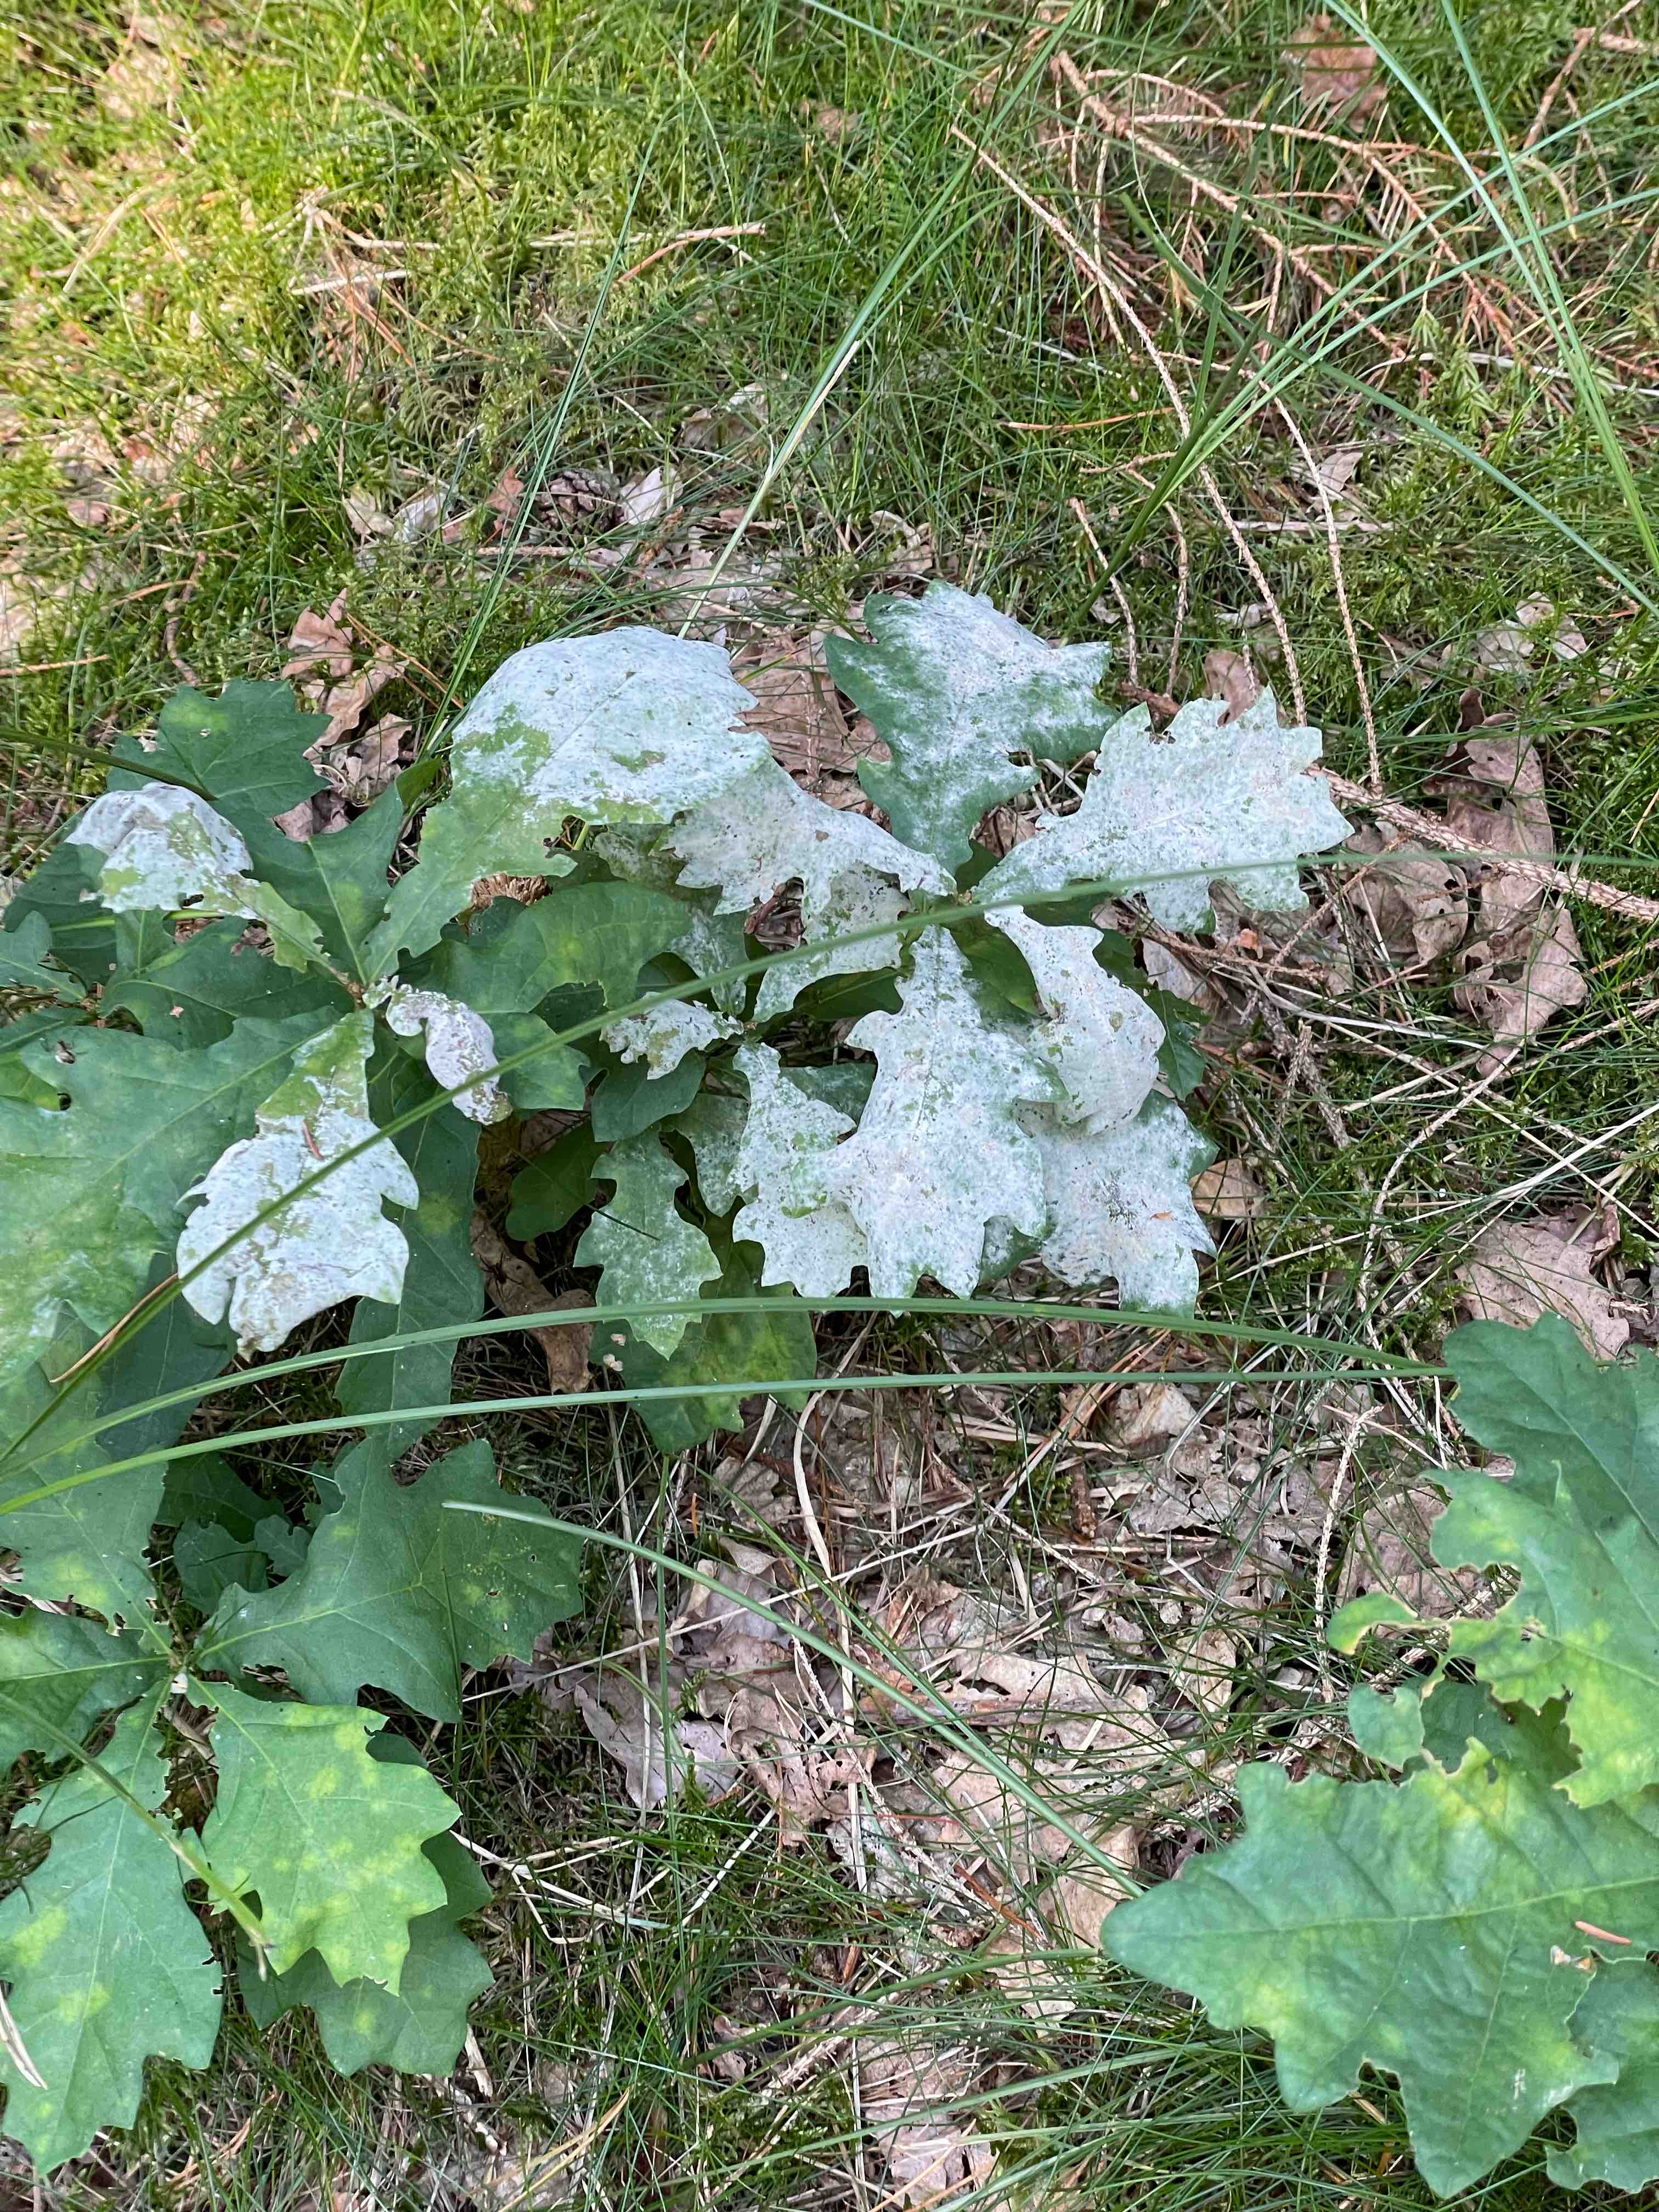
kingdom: Fungi
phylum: Ascomycota
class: Leotiomycetes
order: Helotiales
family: Erysiphaceae
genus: Erysiphe
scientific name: Erysiphe alphitoides
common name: ege-meldug
